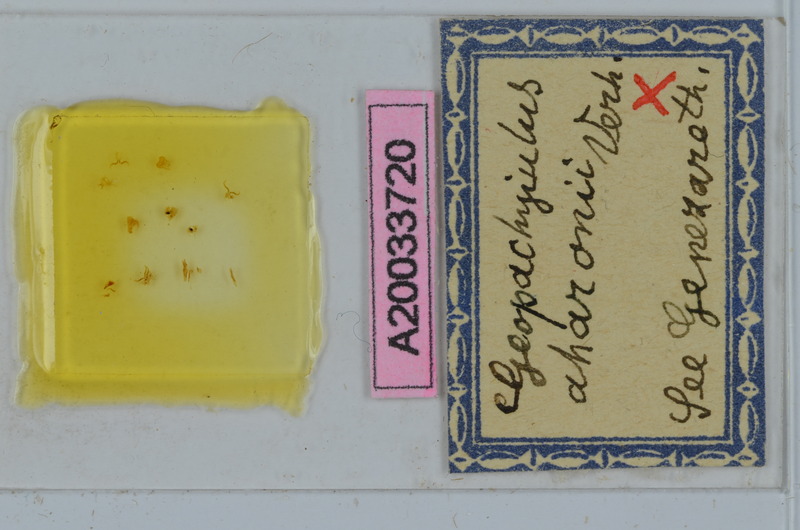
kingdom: Animalia
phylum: Arthropoda
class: Diplopoda
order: Julida
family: Julidae
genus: Geopachyiulus
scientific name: Geopachyiulus
